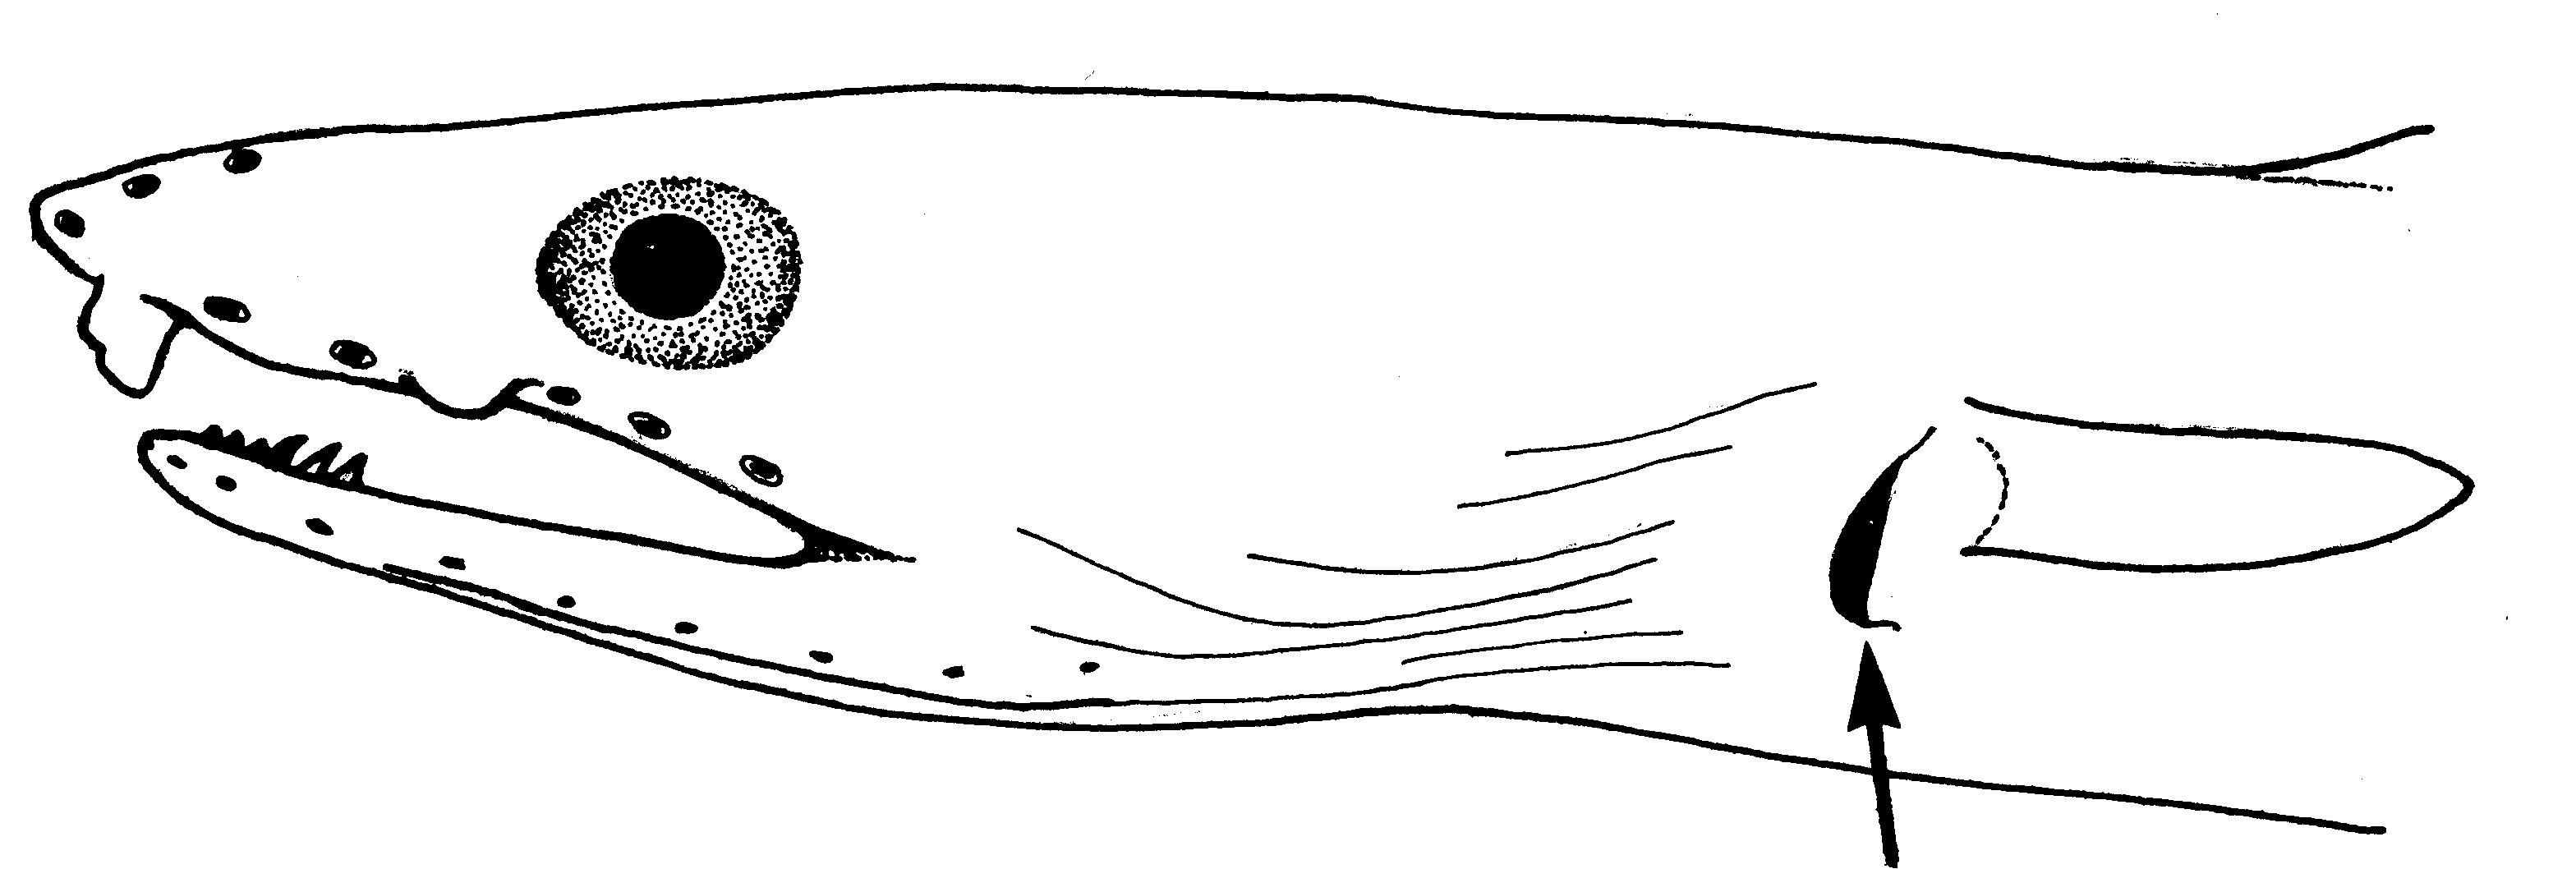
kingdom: Animalia
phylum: Chordata
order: Anguilliformes
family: Ophichthidae
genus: Echelus
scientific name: Echelus uropterus
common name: Finned worm eel
